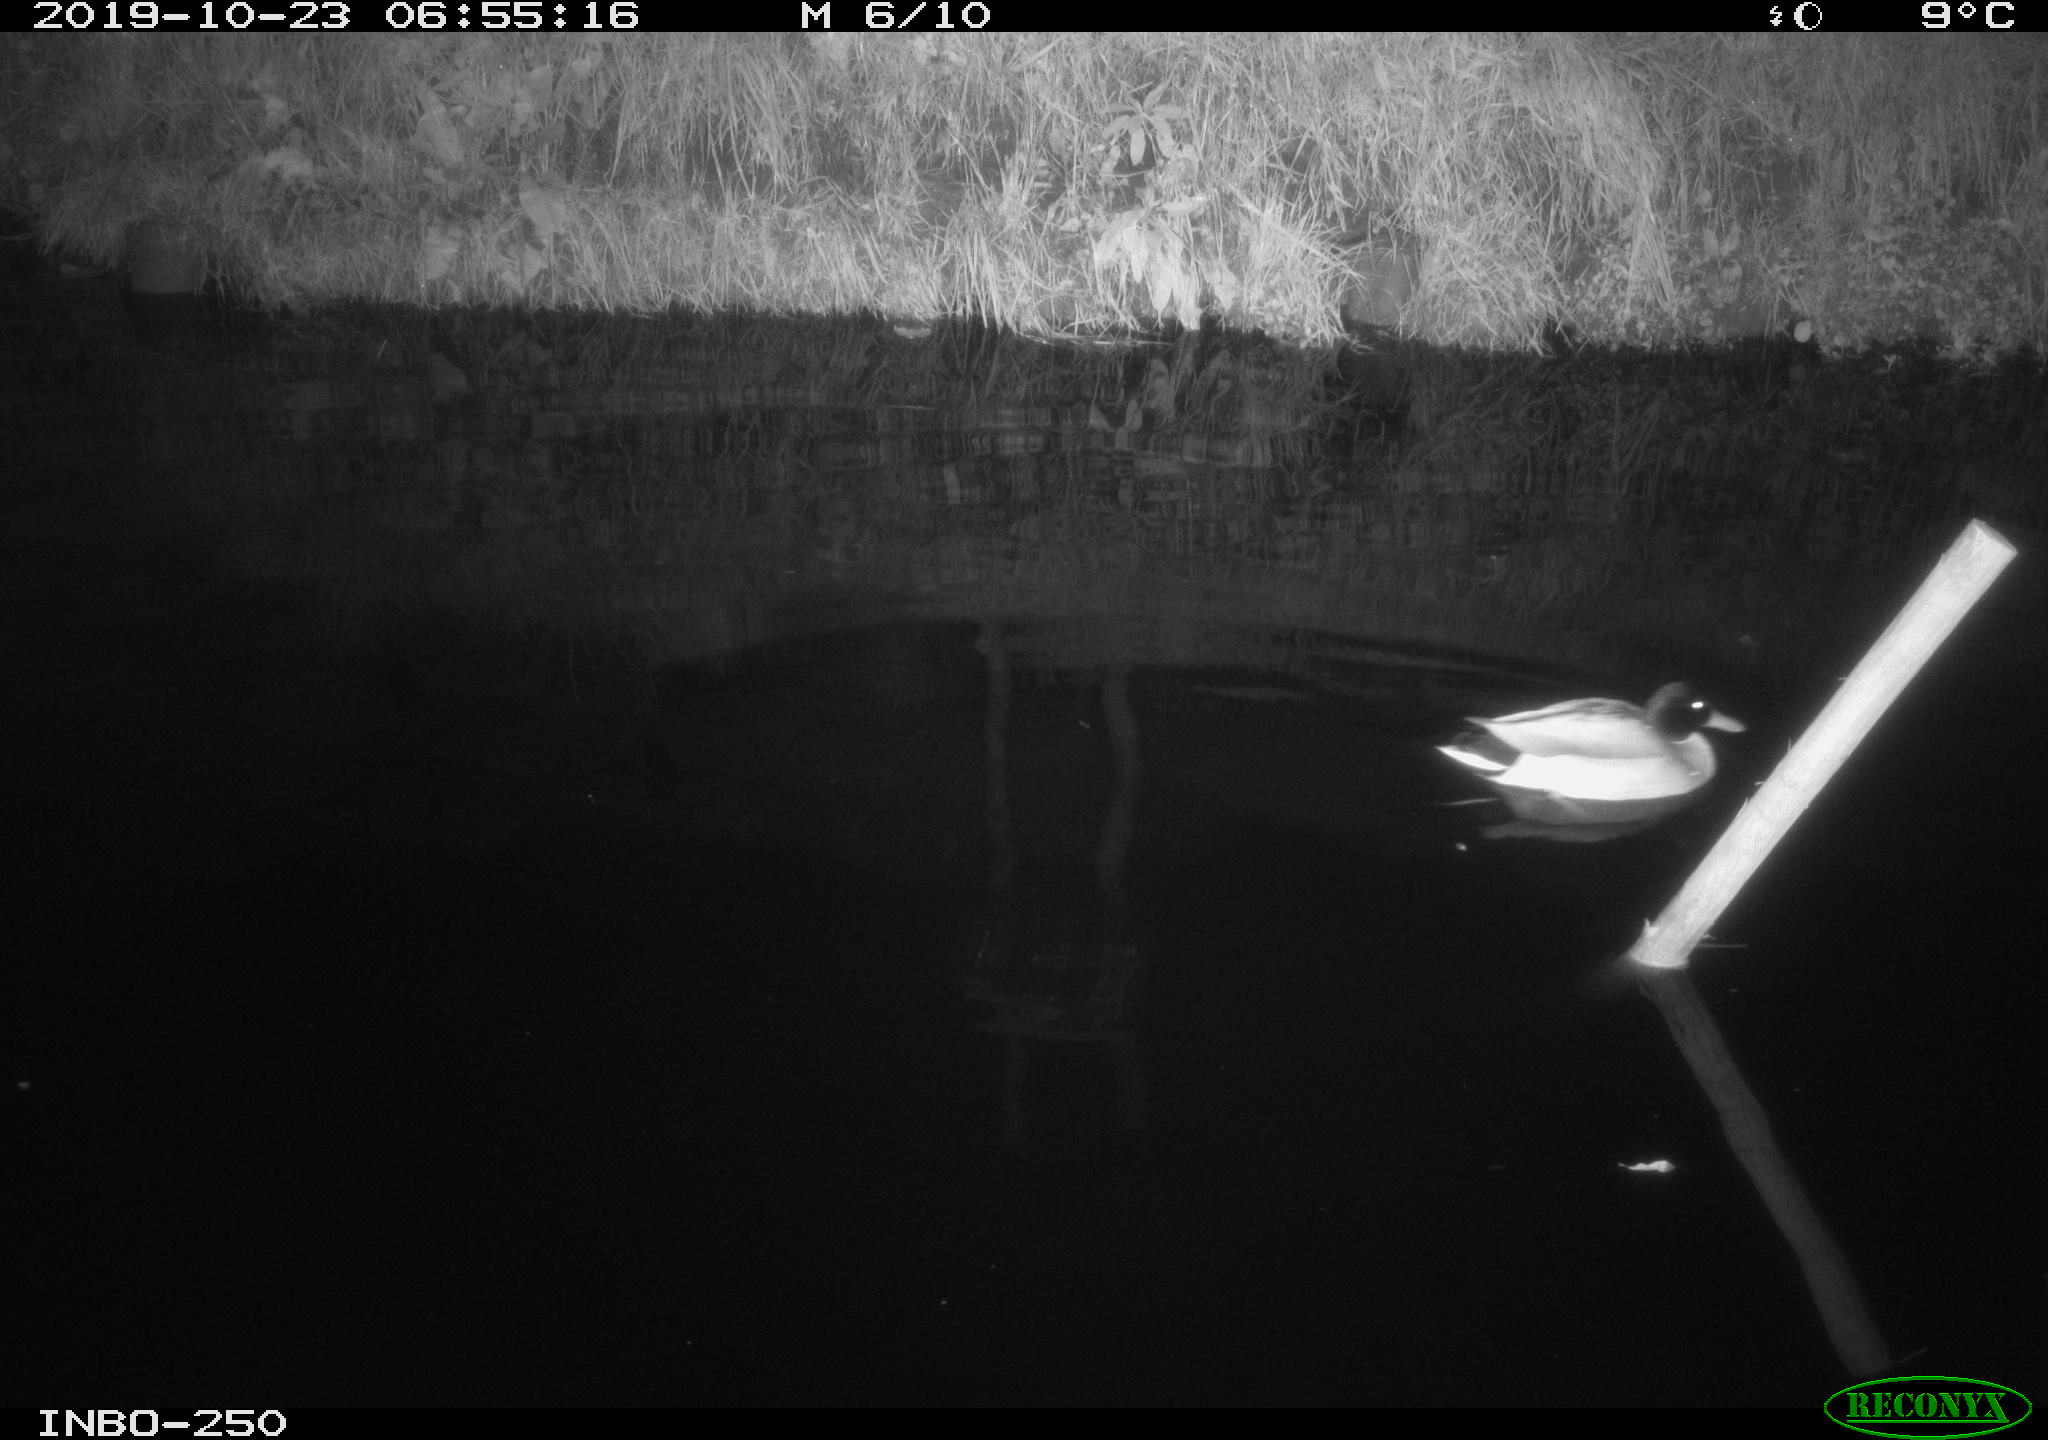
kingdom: Animalia
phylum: Chordata
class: Aves
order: Anseriformes
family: Anatidae
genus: Anas
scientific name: Anas platyrhynchos
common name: Mallard
